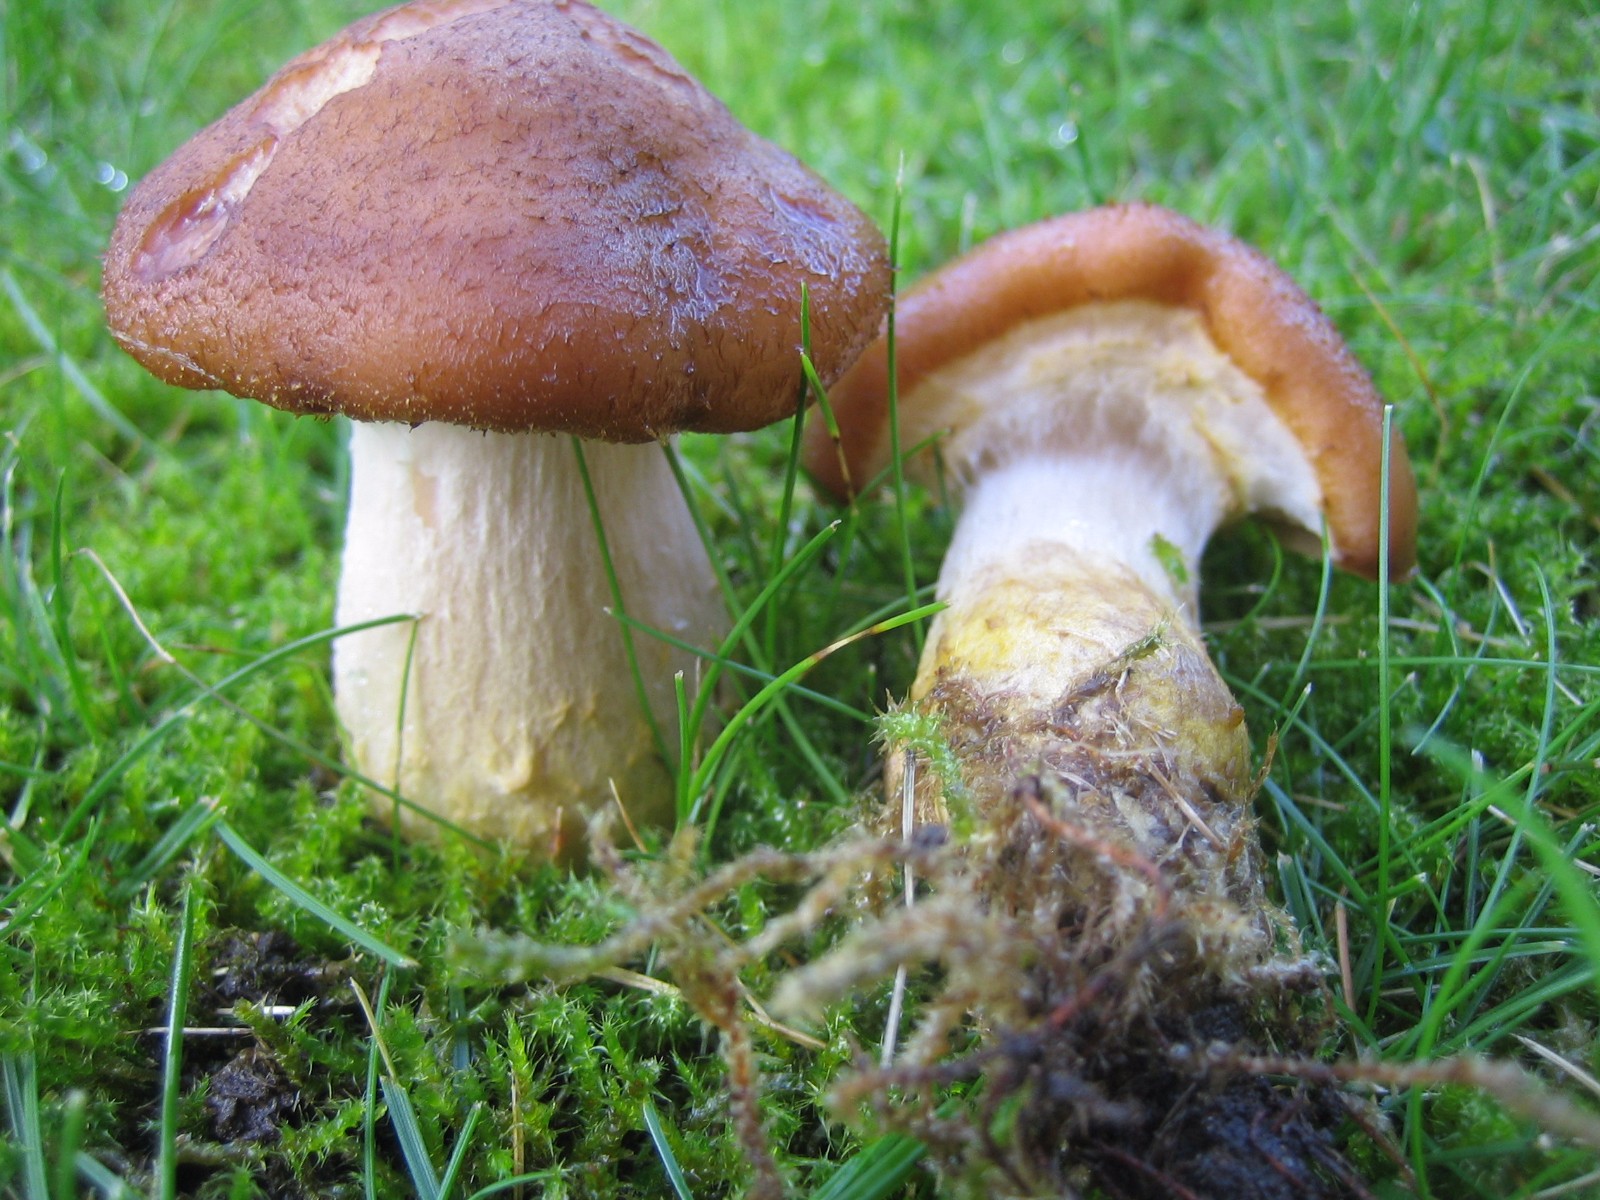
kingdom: Fungi
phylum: Basidiomycota
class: Agaricomycetes
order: Agaricales
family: Physalacriaceae
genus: Armillaria
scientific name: Armillaria lutea
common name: køllestokket honningsvamp
